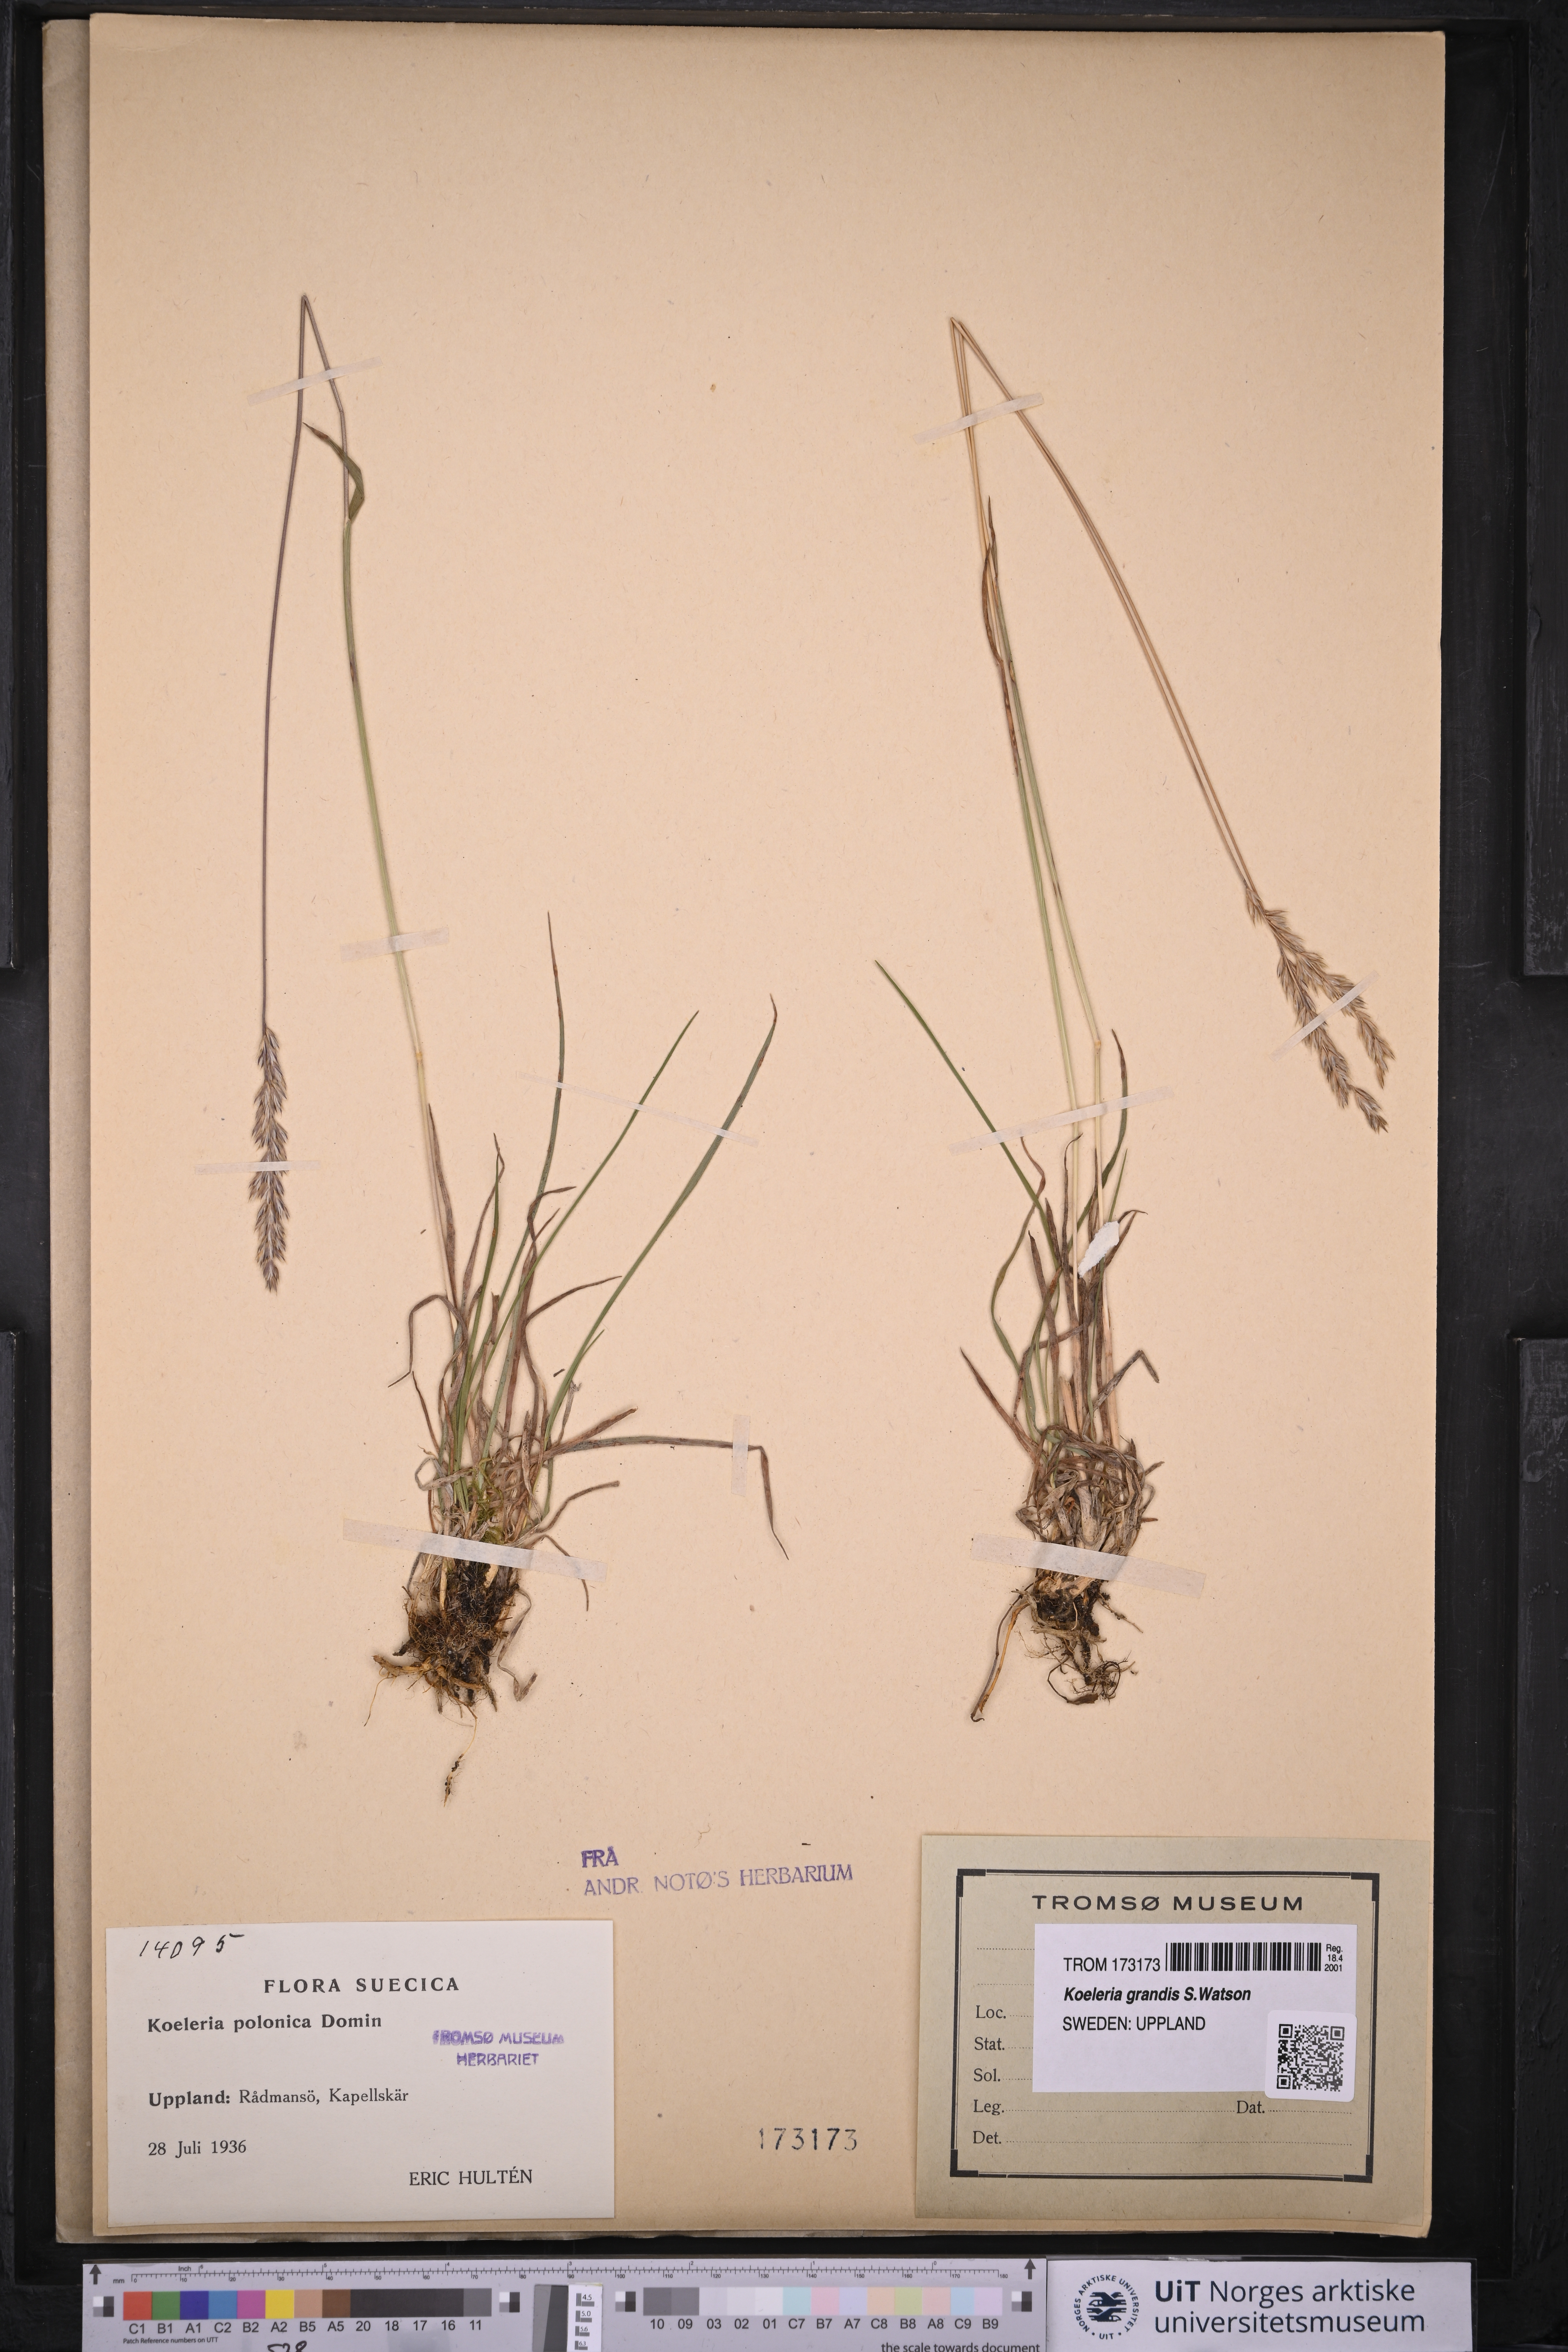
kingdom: Plantae
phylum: Tracheophyta
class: Liliopsida
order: Poales
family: Poaceae
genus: Koeleria
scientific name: Koeleria grandis
